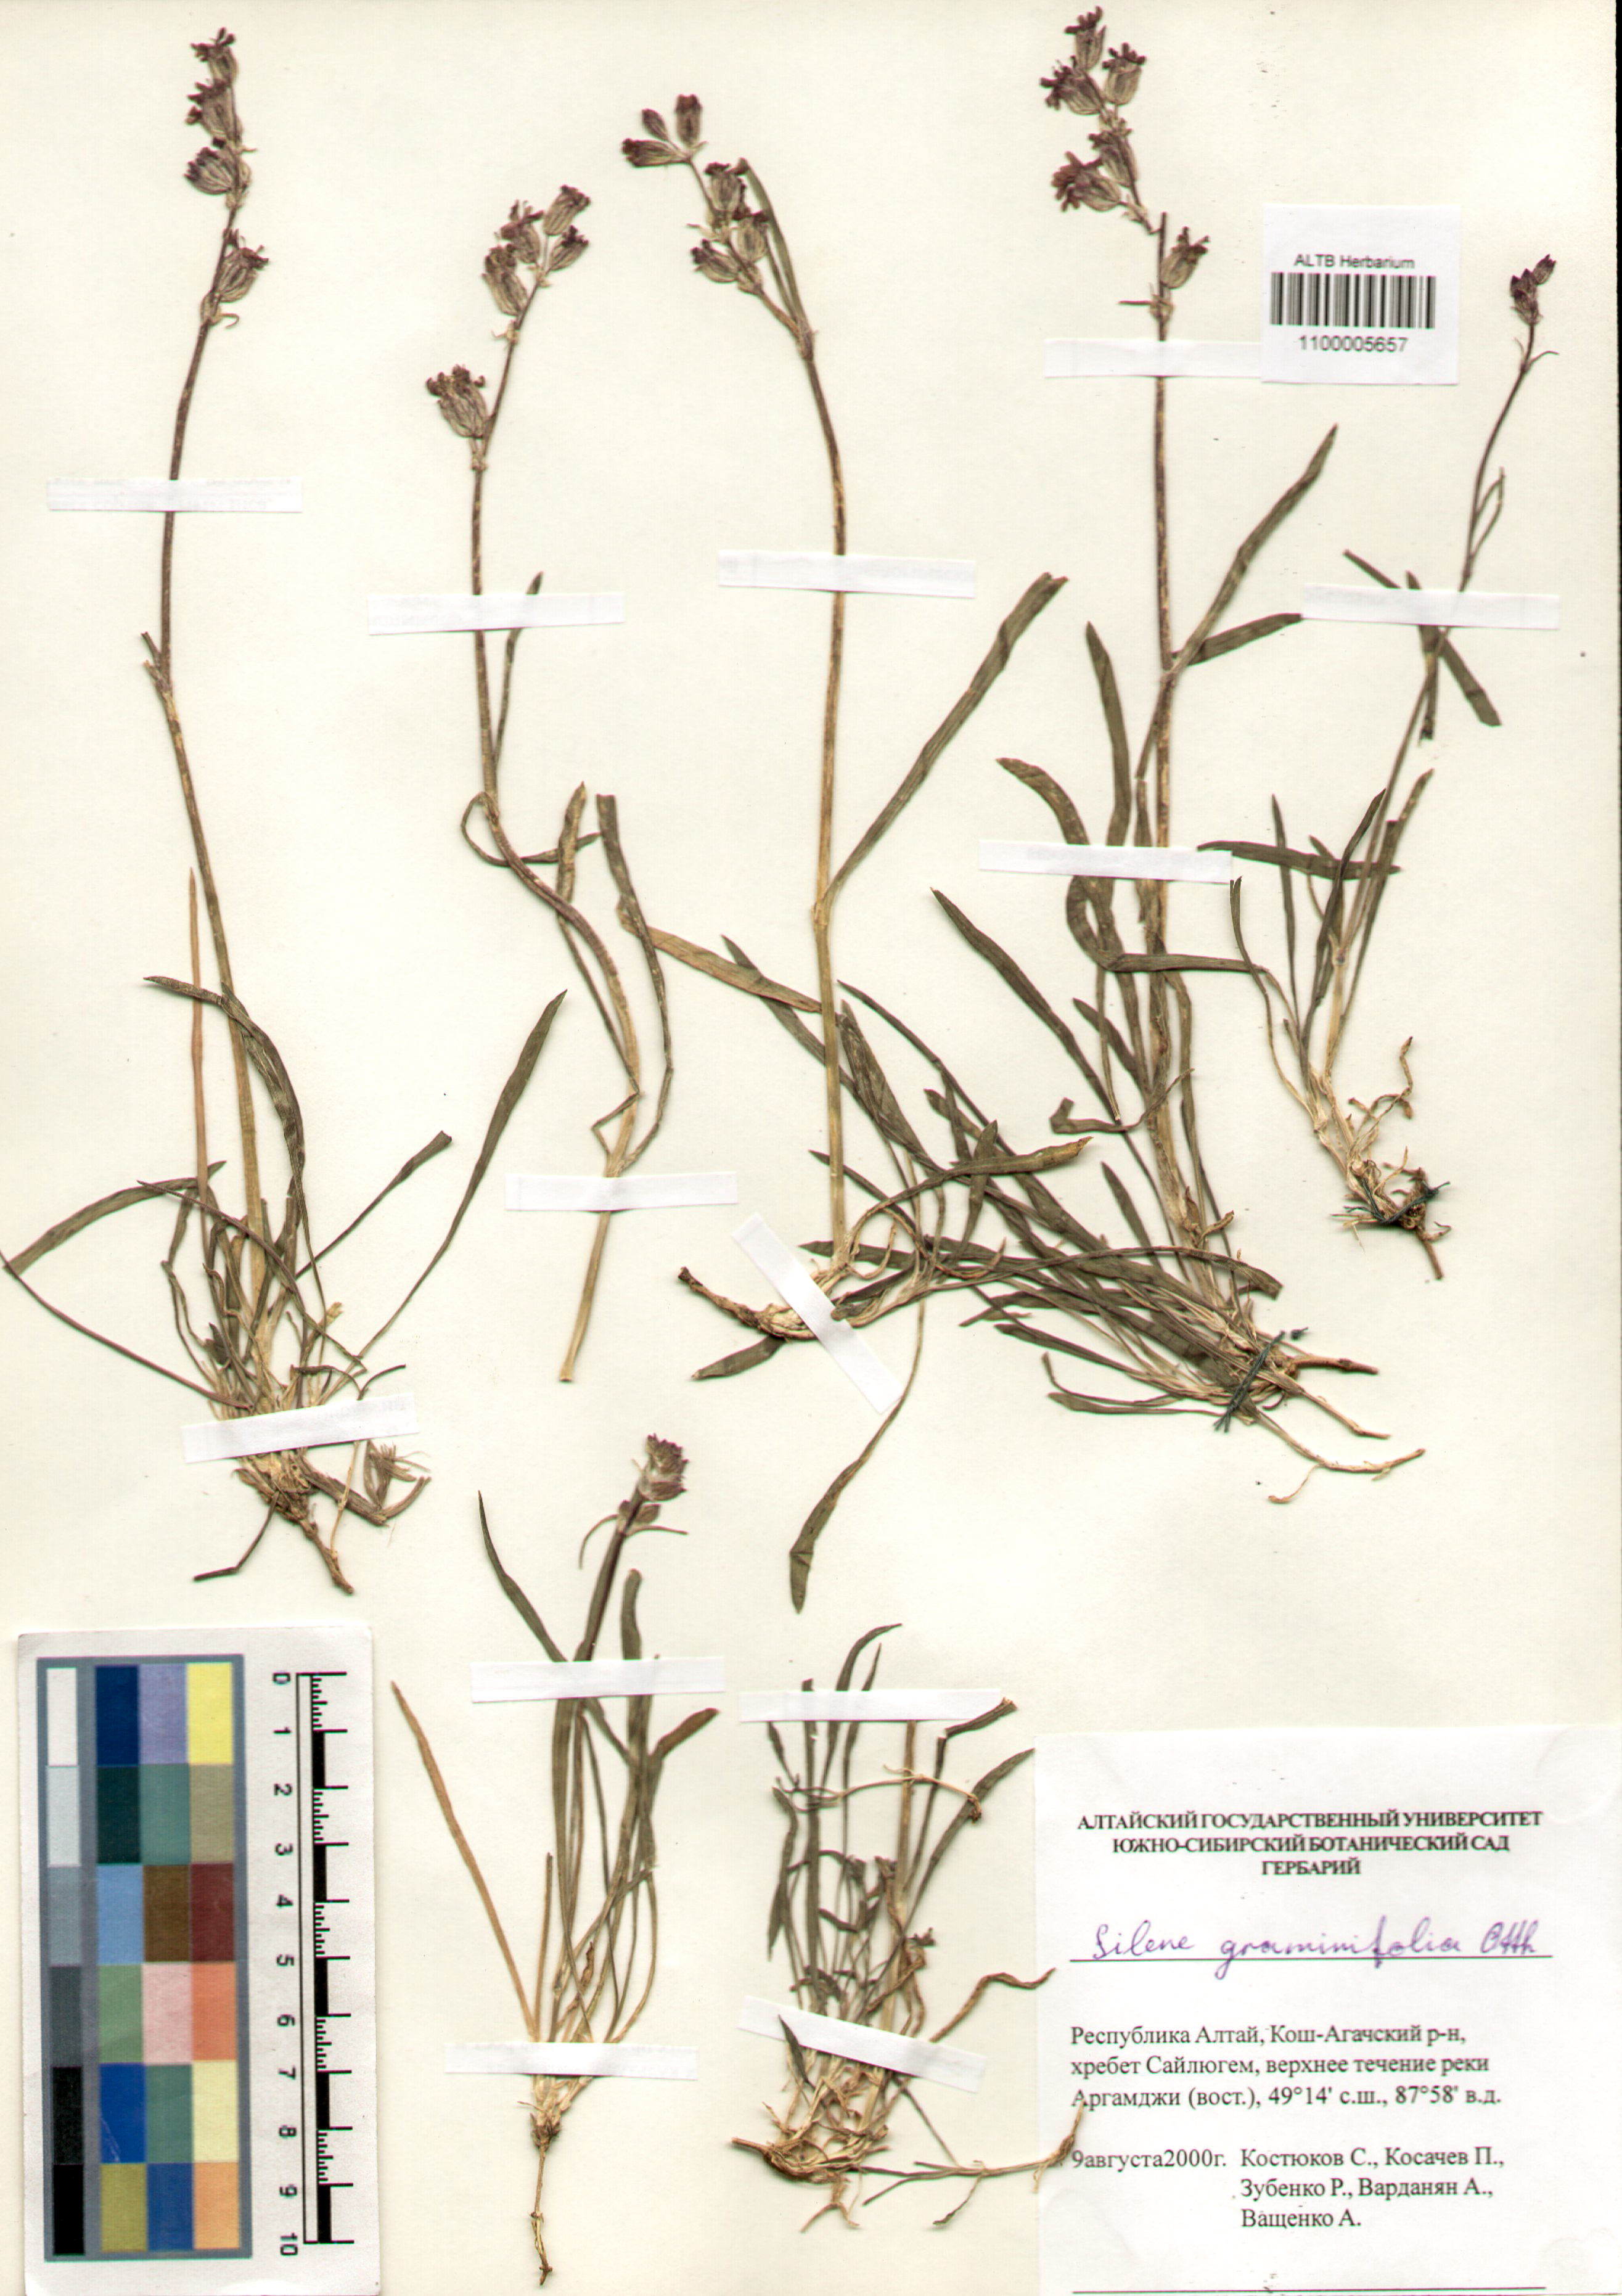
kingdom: Plantae
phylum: Tracheophyta
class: Magnoliopsida
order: Caryophyllales
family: Caryophyllaceae
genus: Silene
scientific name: Silene graminifolia
